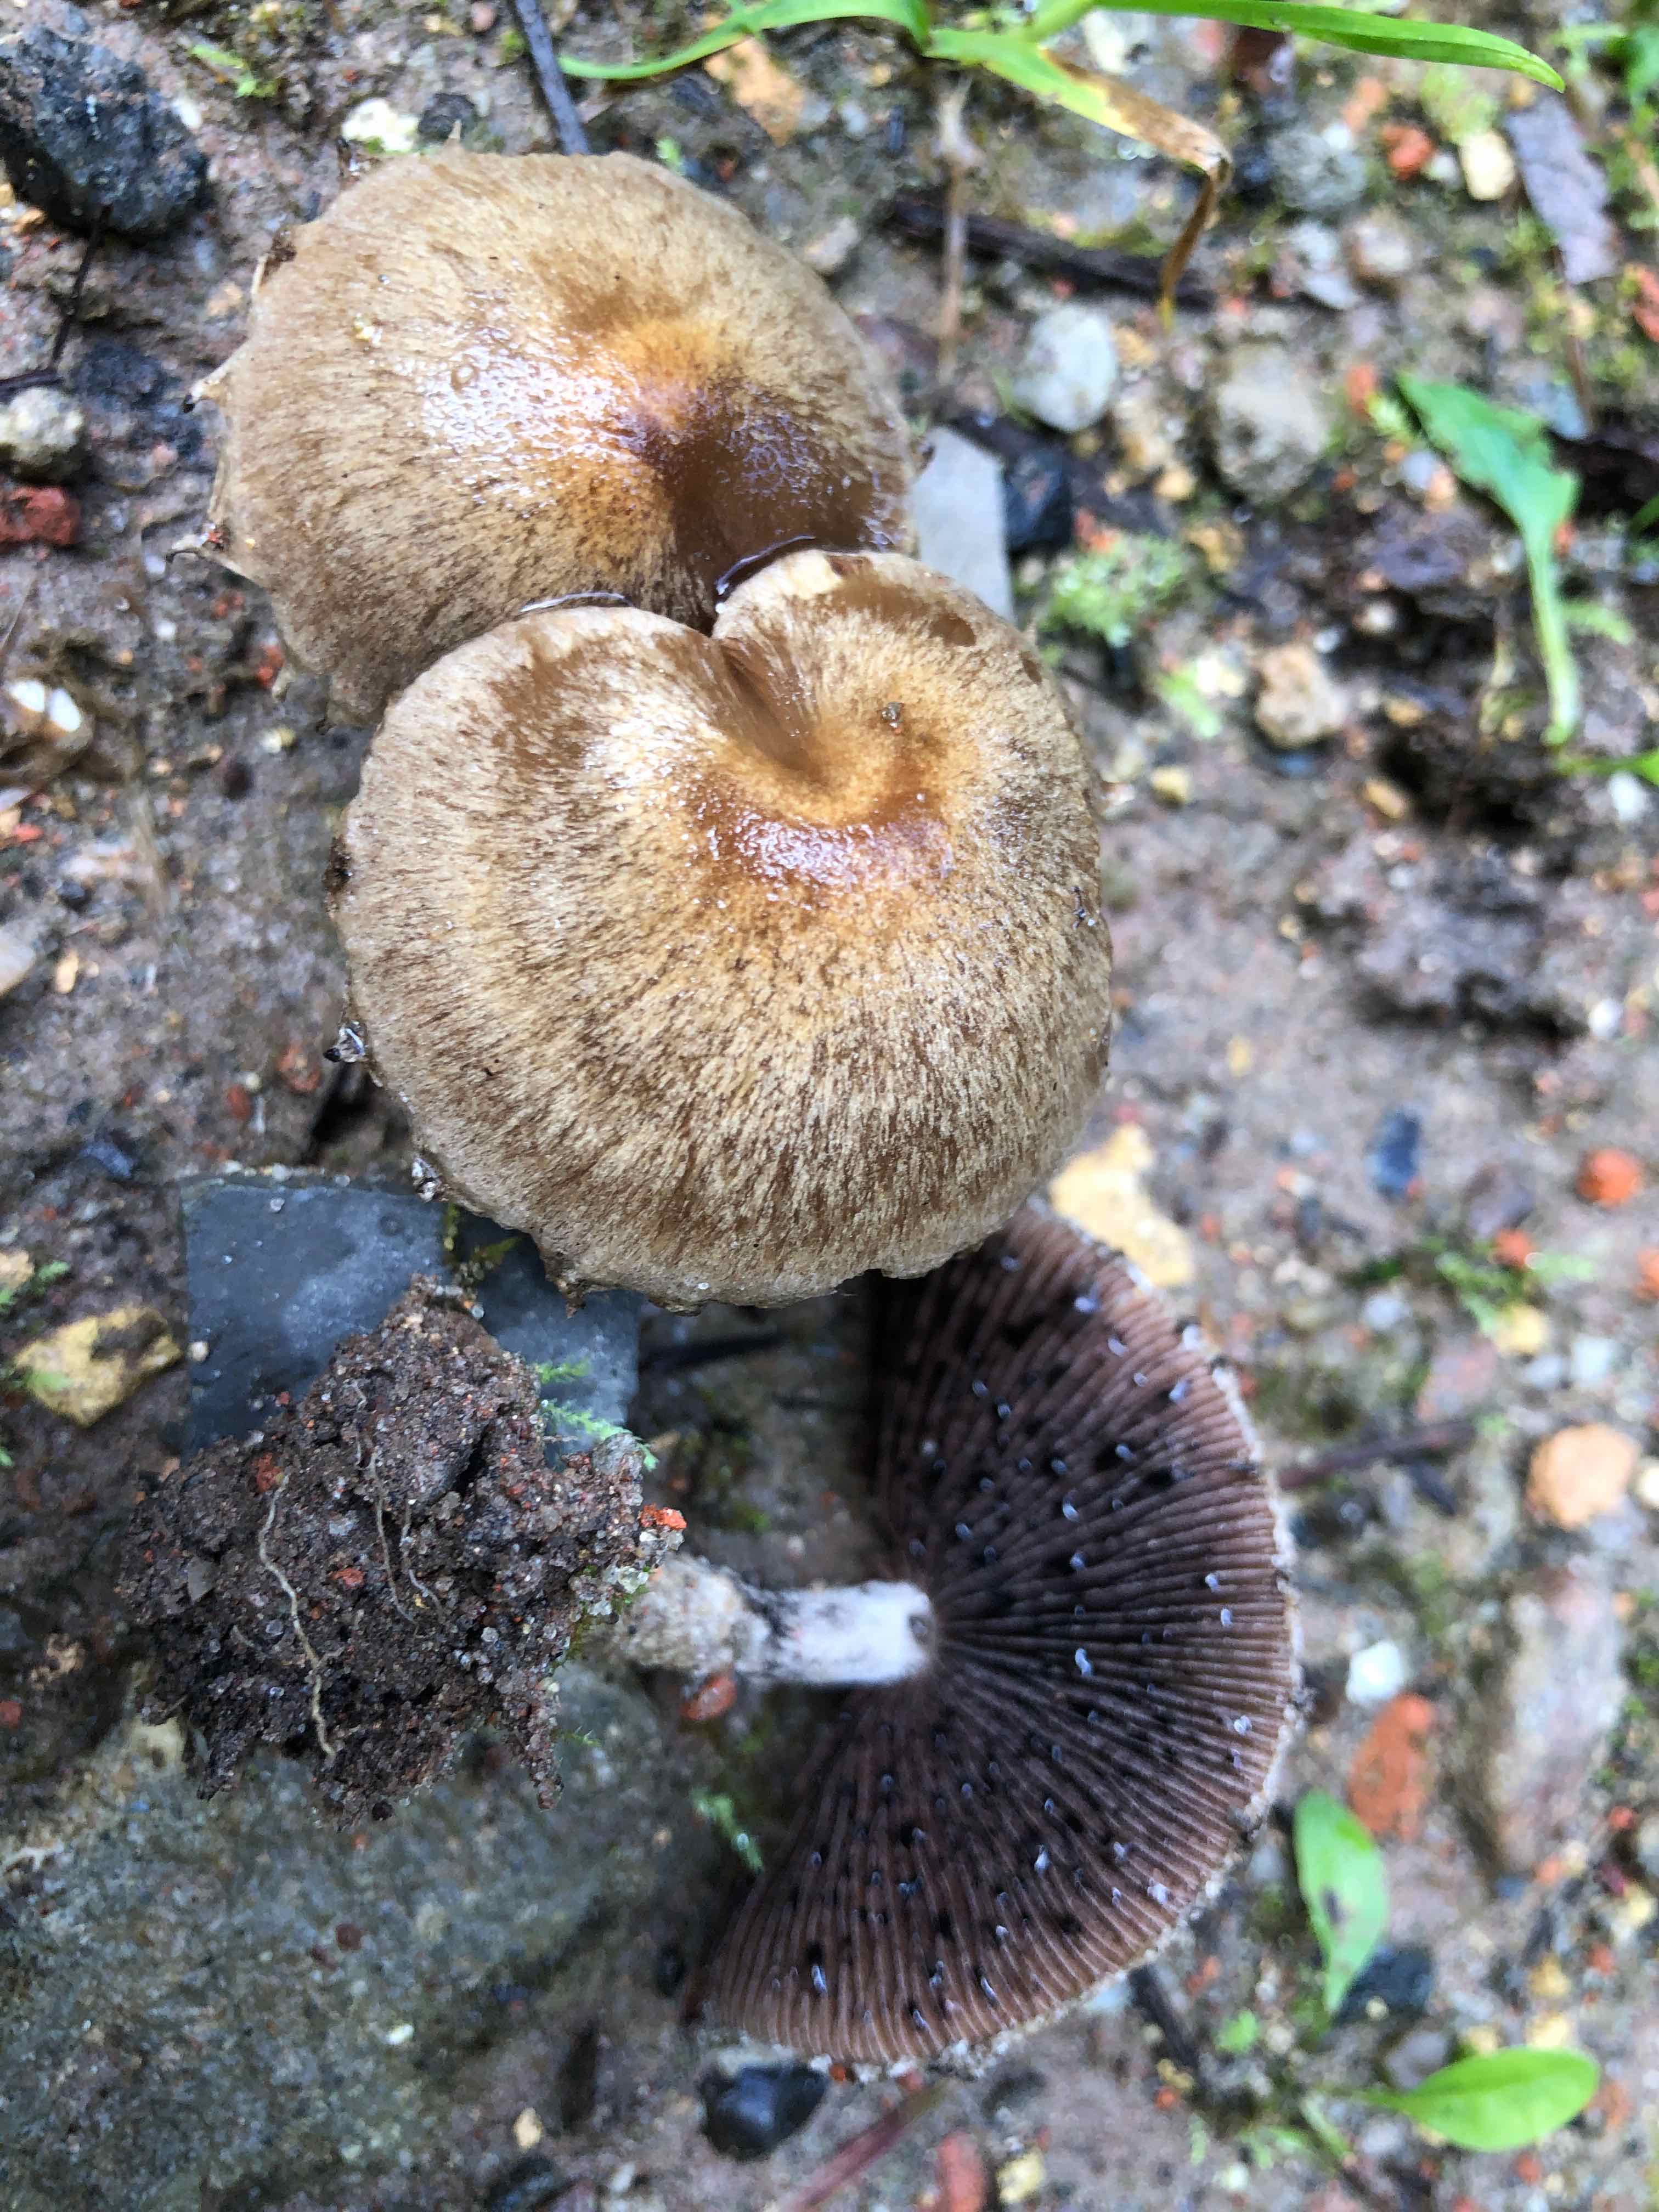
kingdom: Fungi
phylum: Basidiomycota
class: Agaricomycetes
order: Agaricales
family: Psathyrellaceae
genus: Lacrymaria
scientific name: Lacrymaria lacrymabunda
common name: grædende mørkhat
